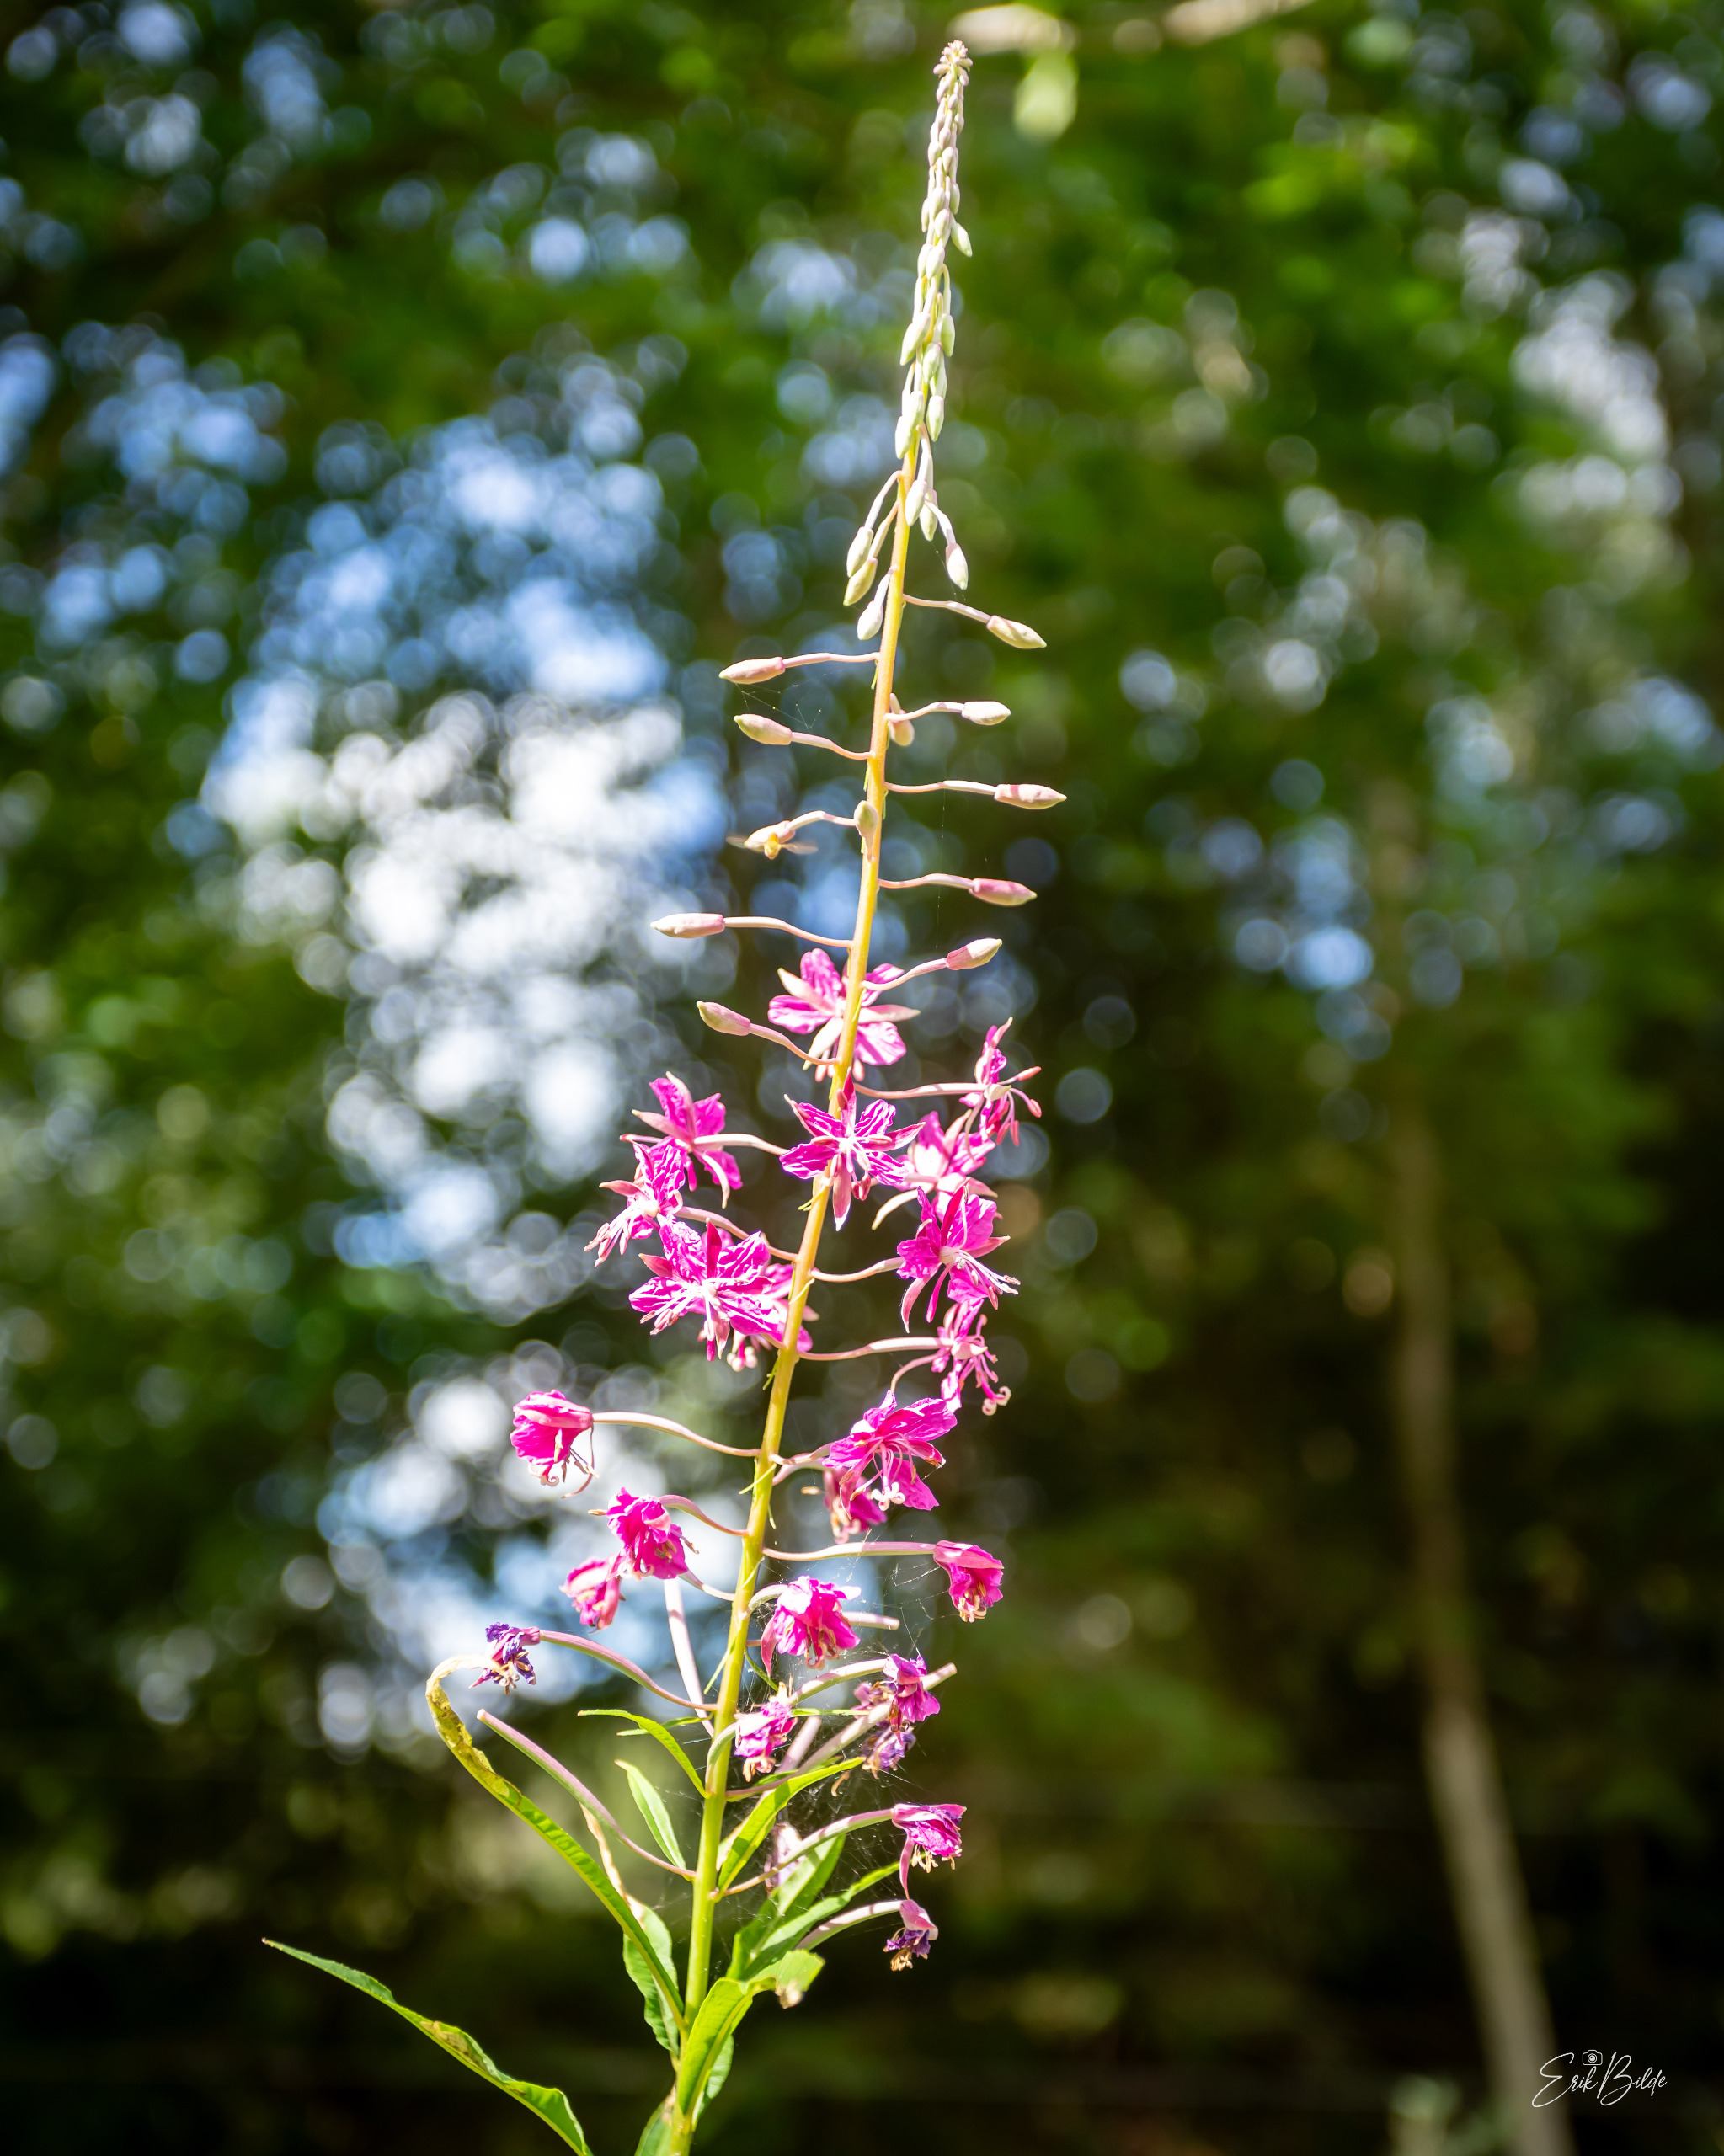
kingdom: Plantae
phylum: Tracheophyta
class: Magnoliopsida
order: Myrtales
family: Onagraceae
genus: Chamaenerion
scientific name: Chamaenerion angustifolium
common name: Gederams
